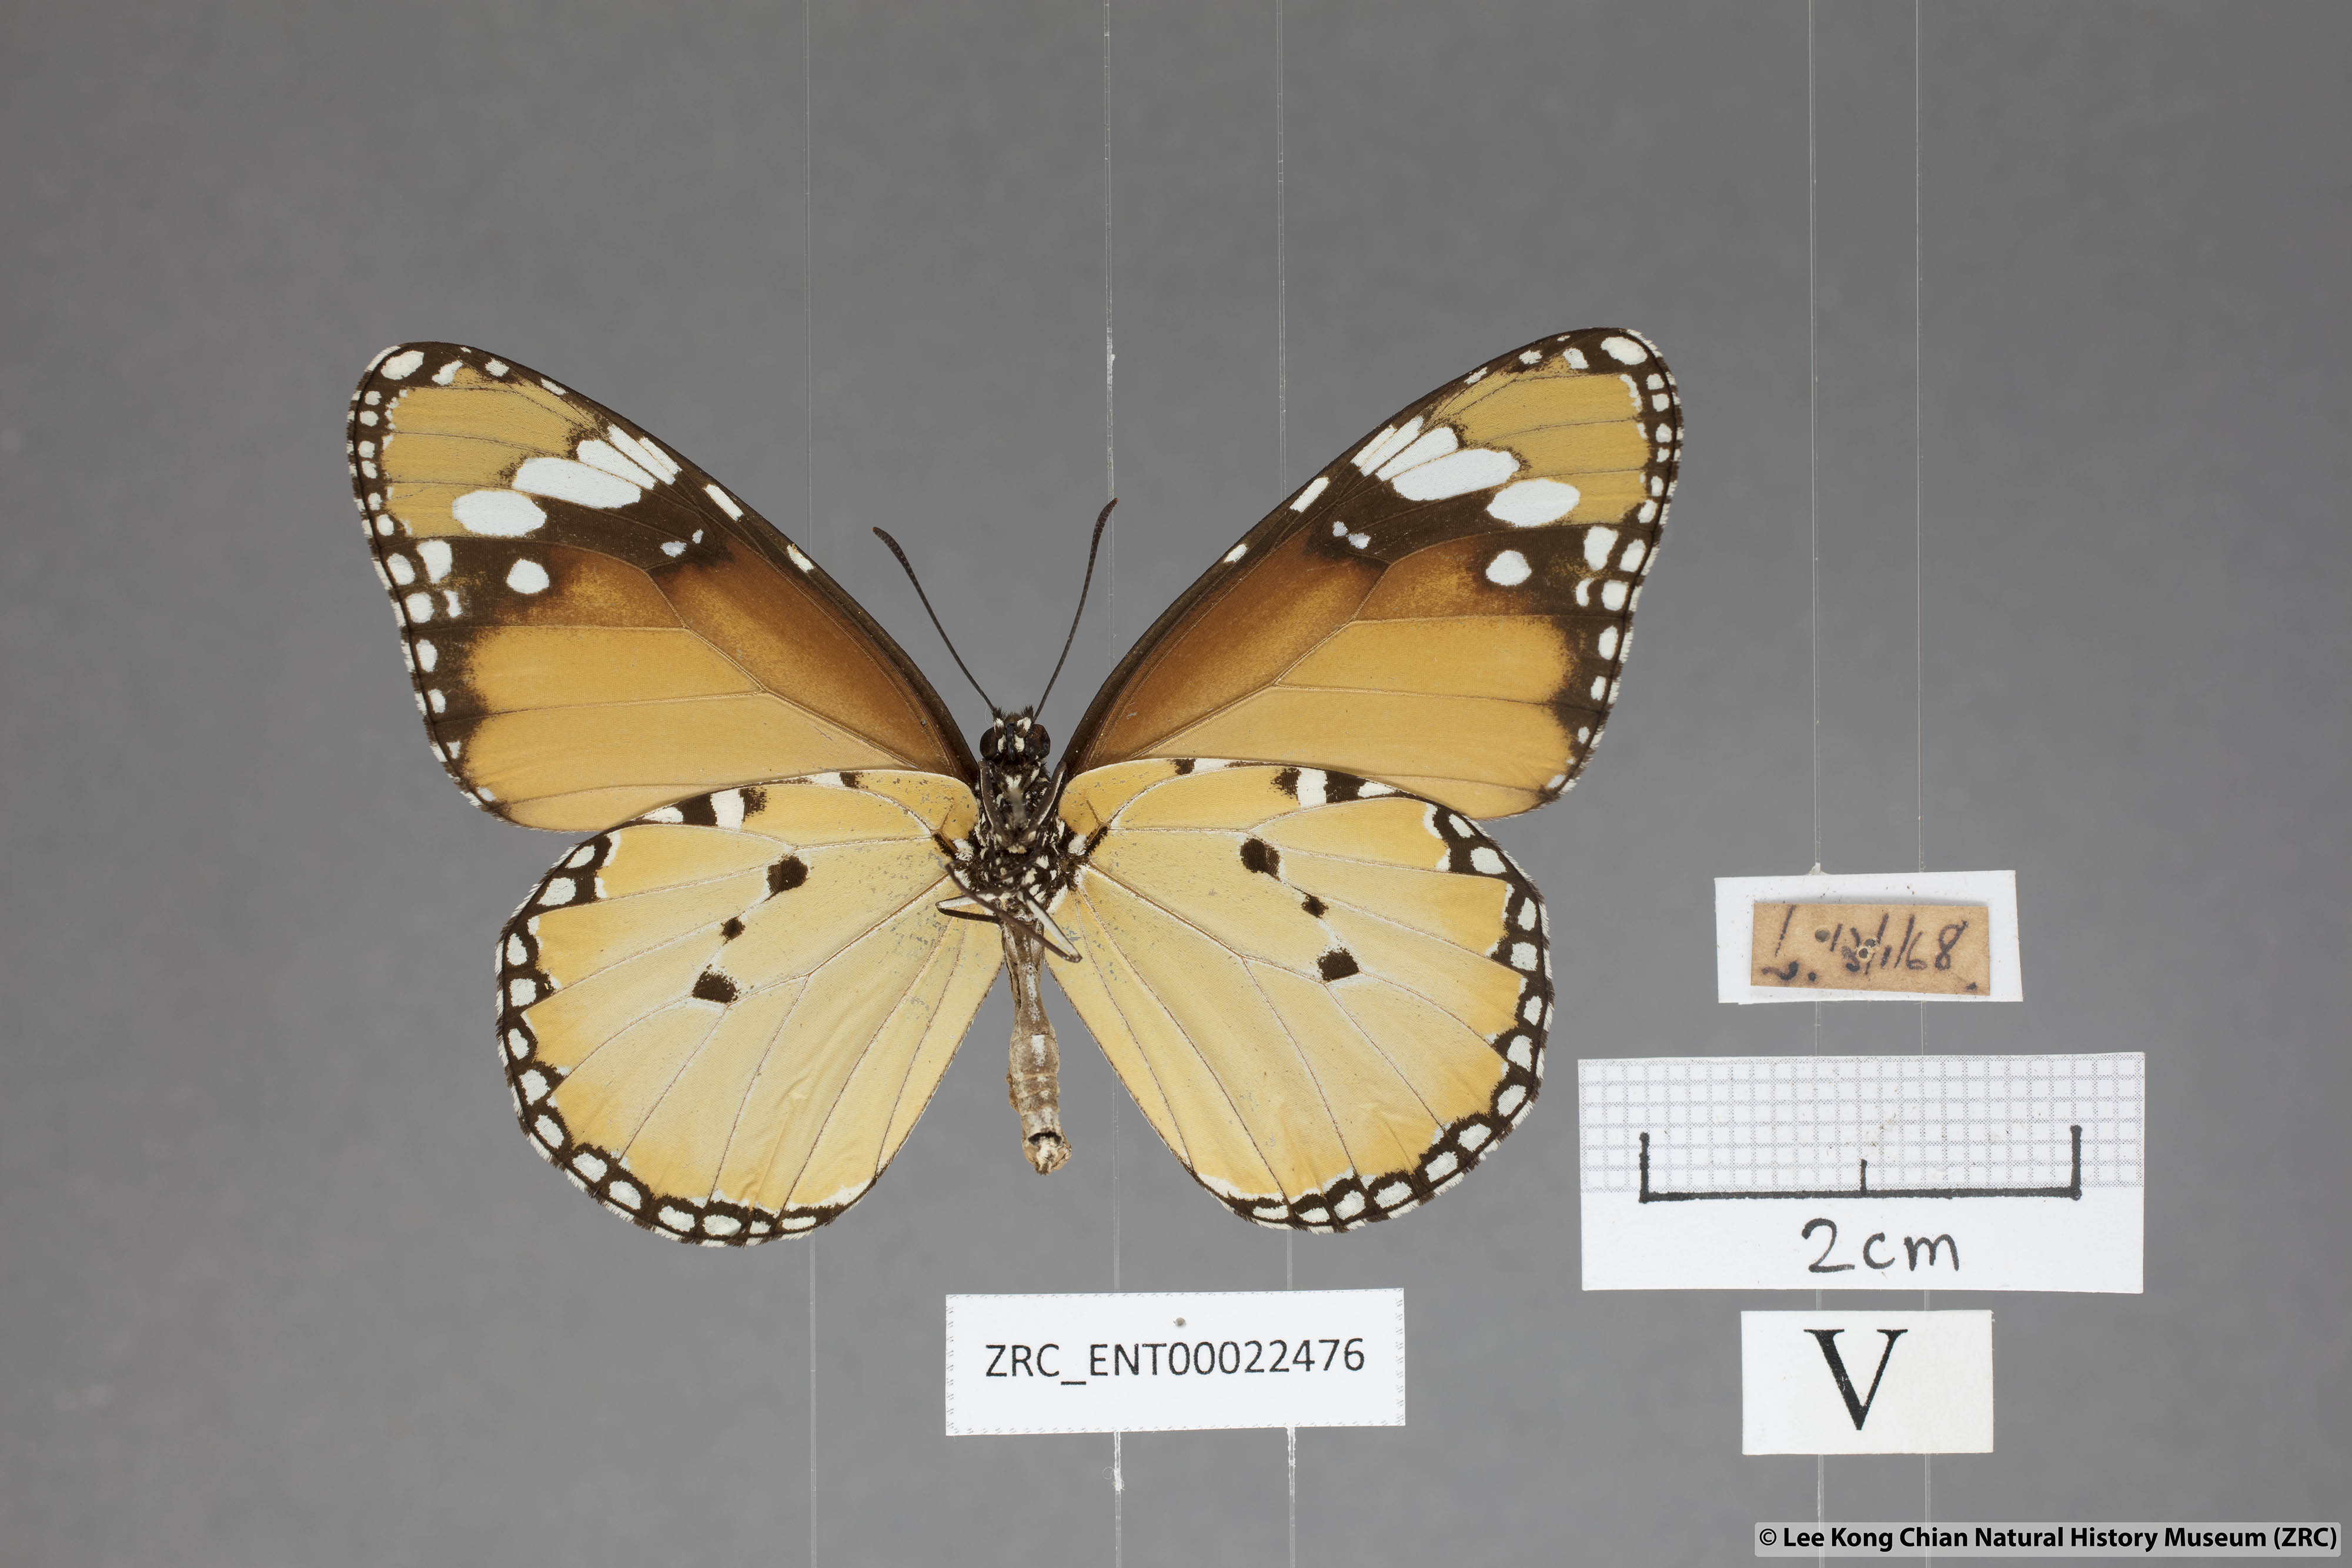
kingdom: Animalia
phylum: Arthropoda
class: Insecta
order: Lepidoptera
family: Nymphalidae
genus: Danaus
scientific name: Danaus chrysippus
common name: Plain tiger
